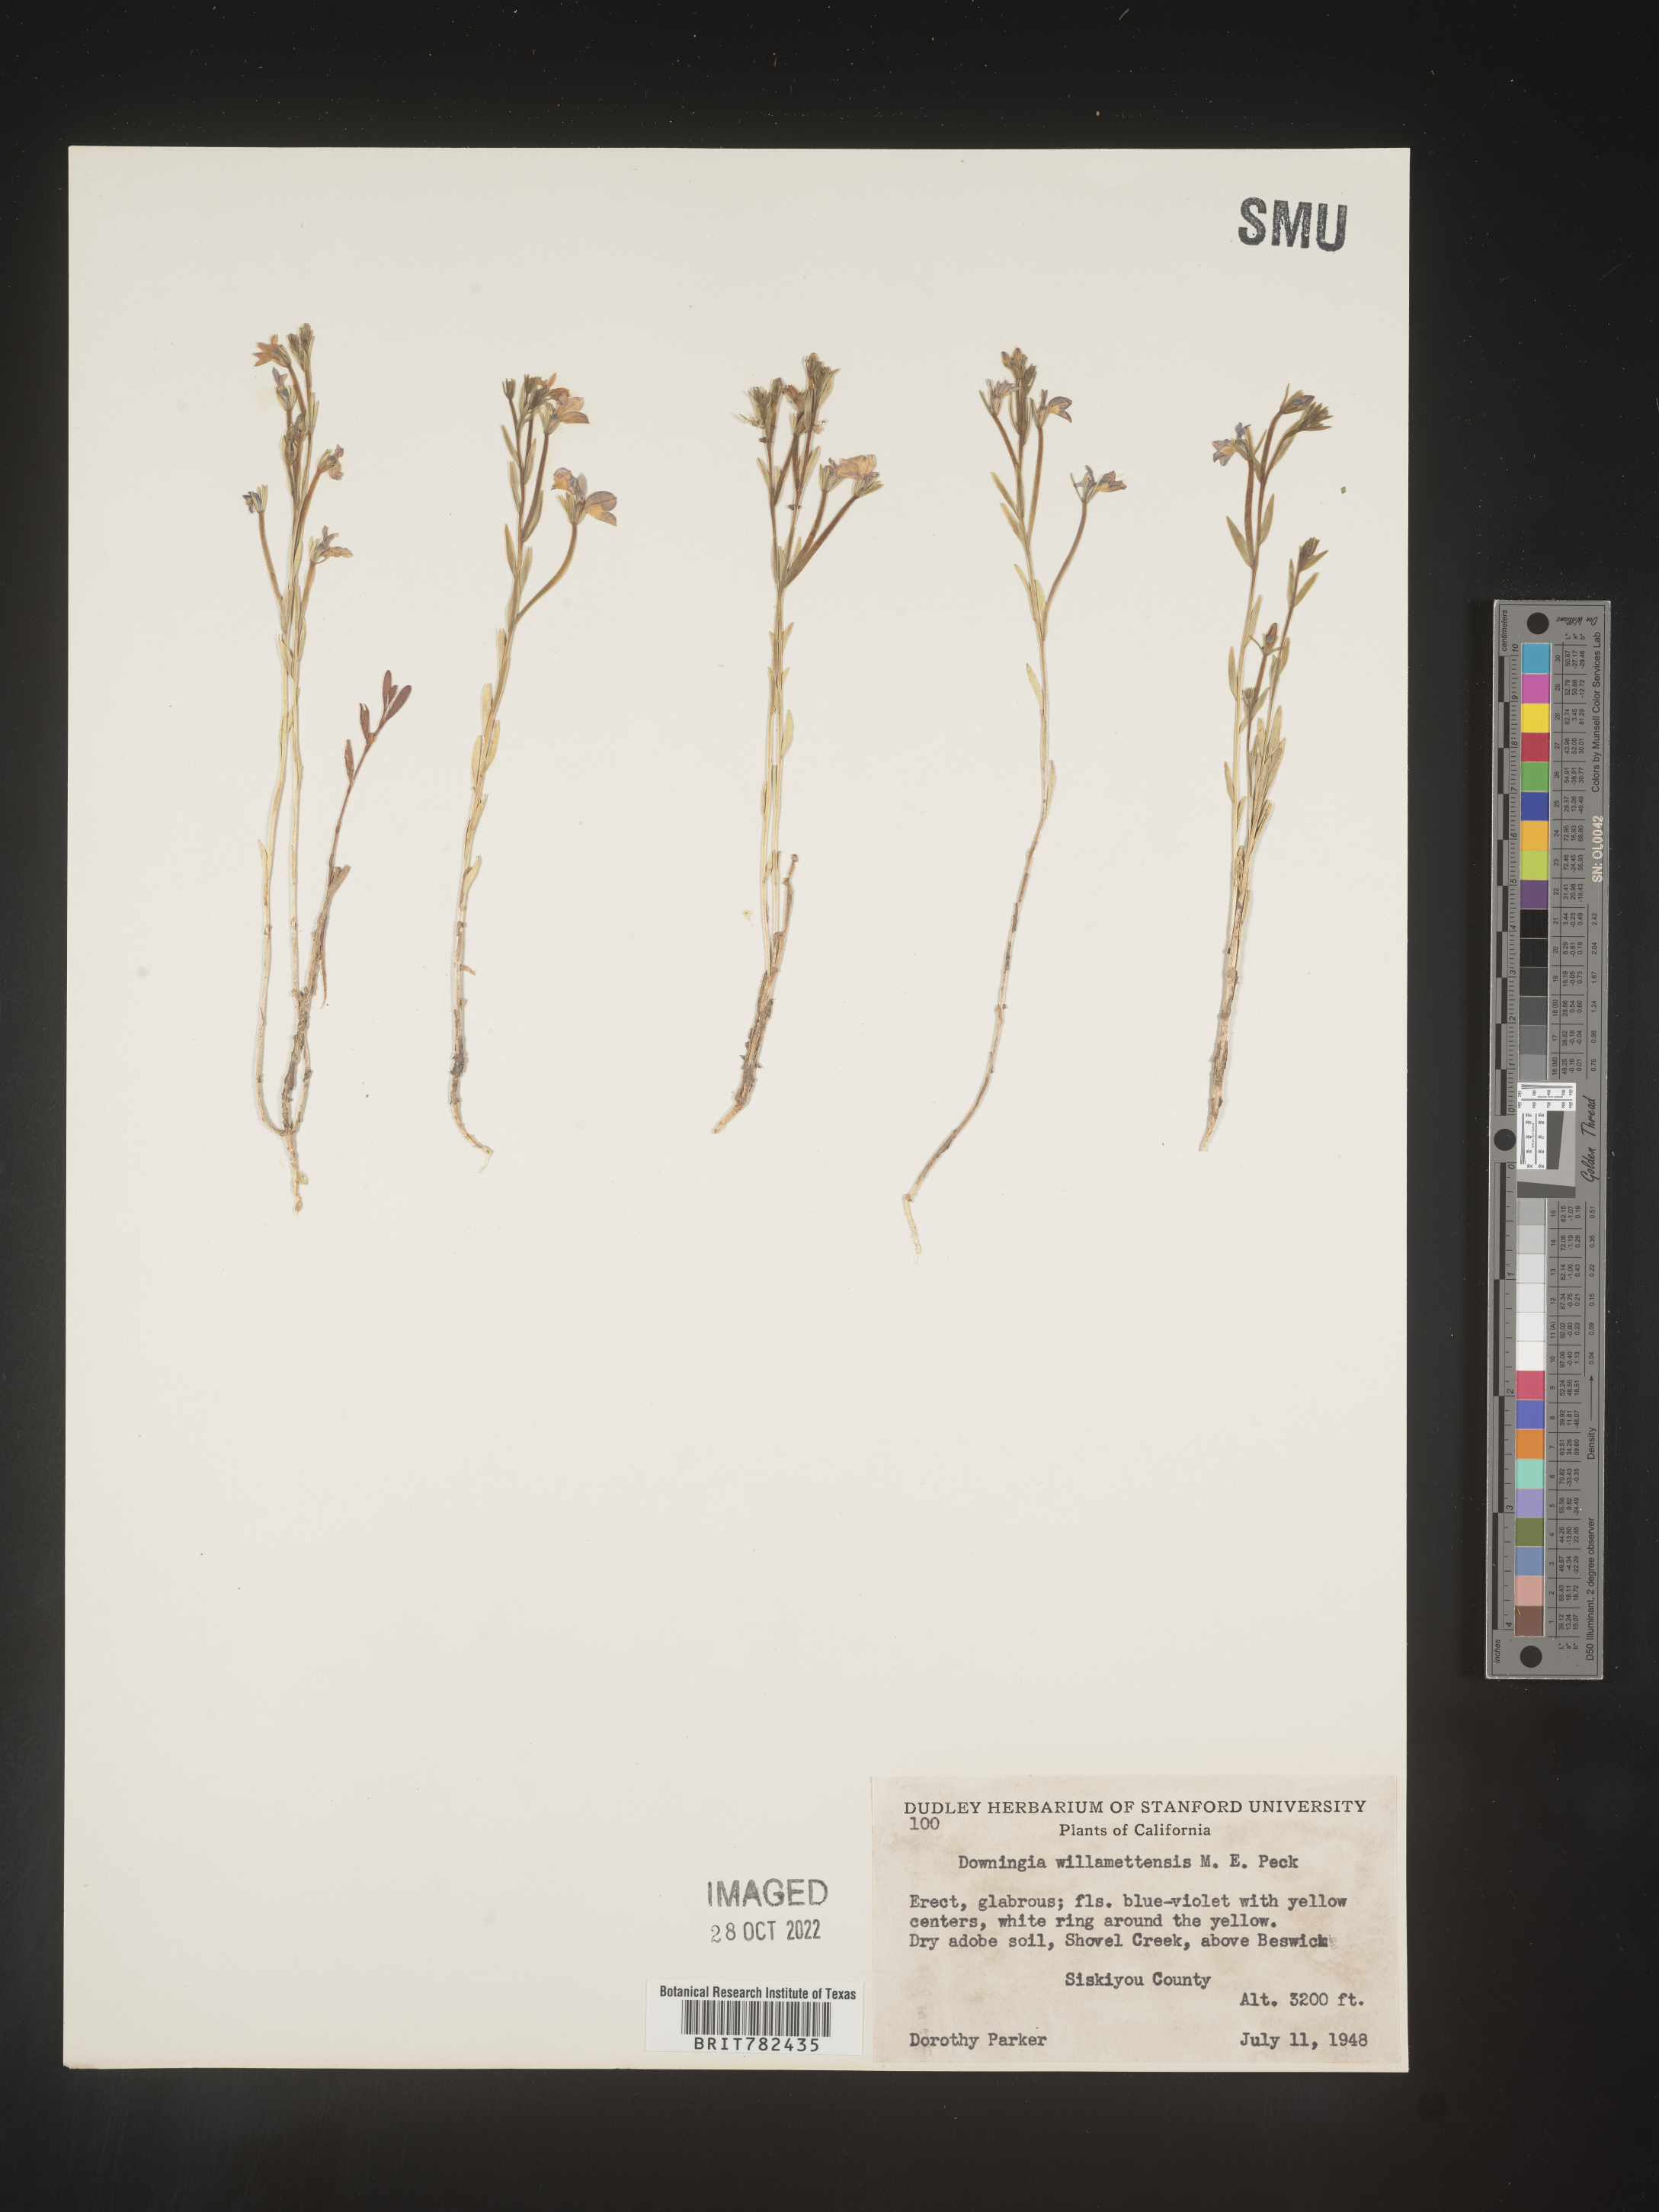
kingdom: Plantae
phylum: Tracheophyta
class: Magnoliopsida
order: Asterales
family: Campanulaceae
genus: Downingia
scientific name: Downingia
